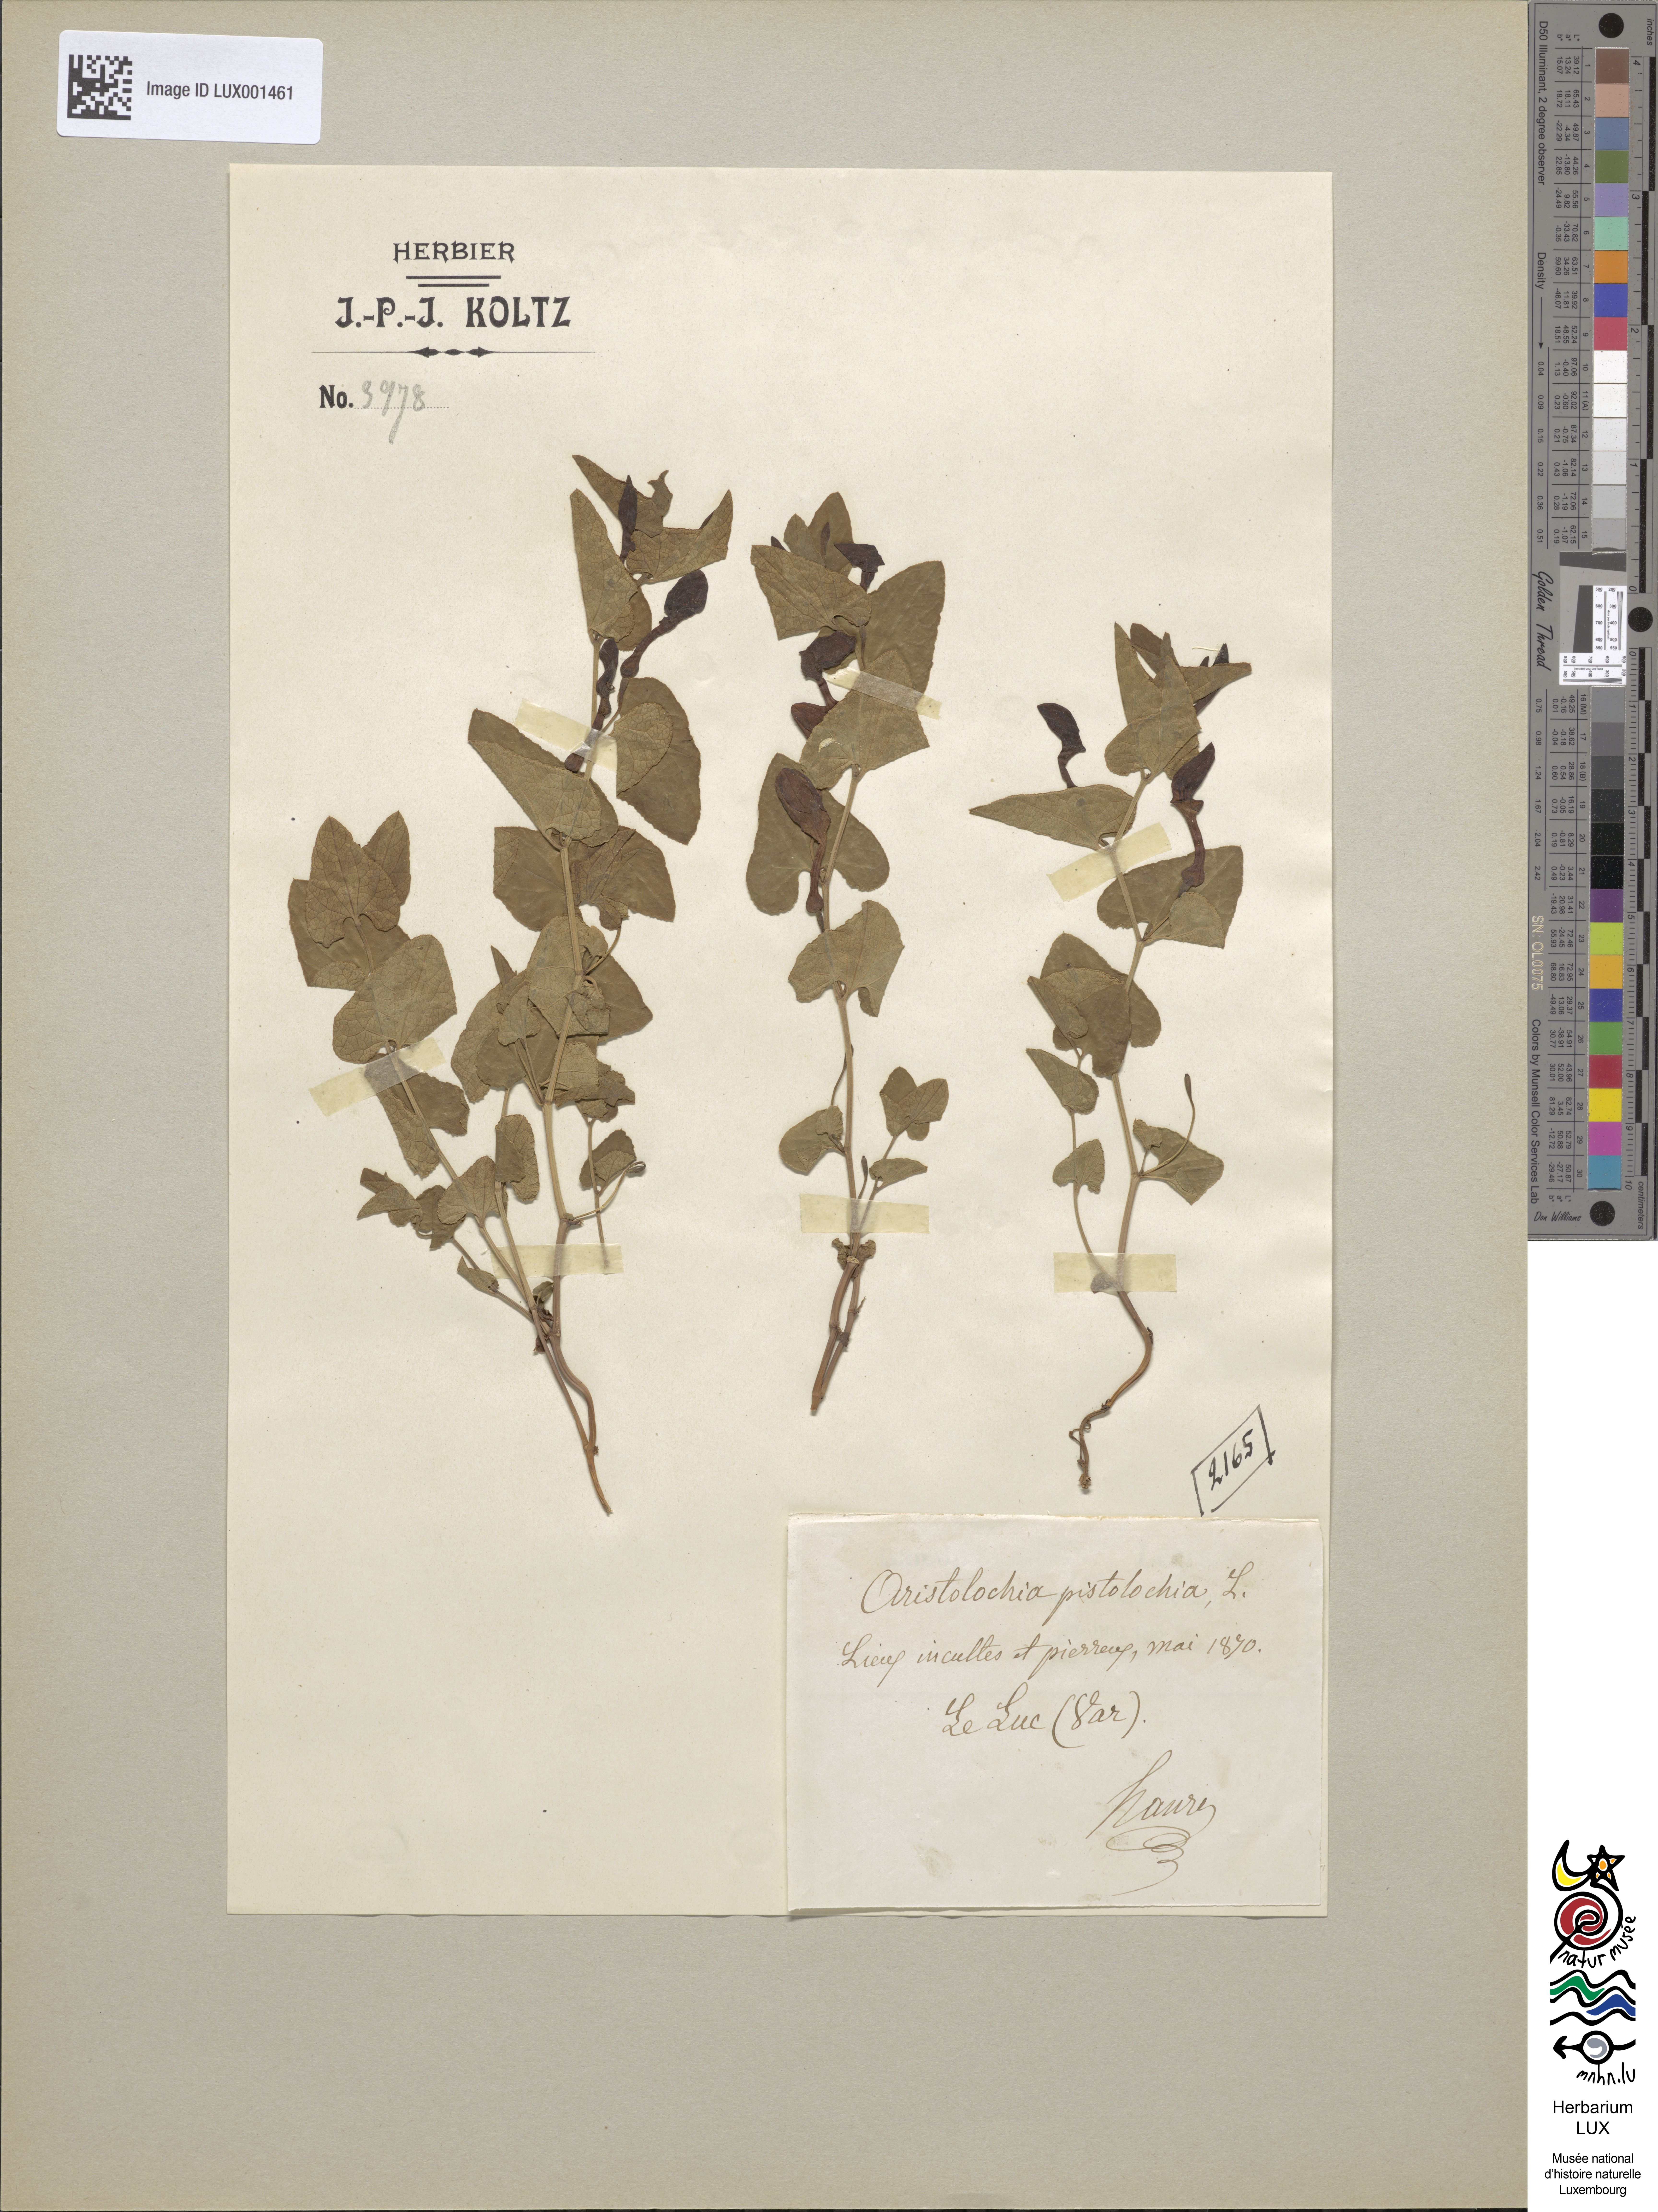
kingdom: Plantae
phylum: Tracheophyta
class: Magnoliopsida
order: Piperales
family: Aristolochiaceae
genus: Aristolochia
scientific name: Aristolochia pistolochia
